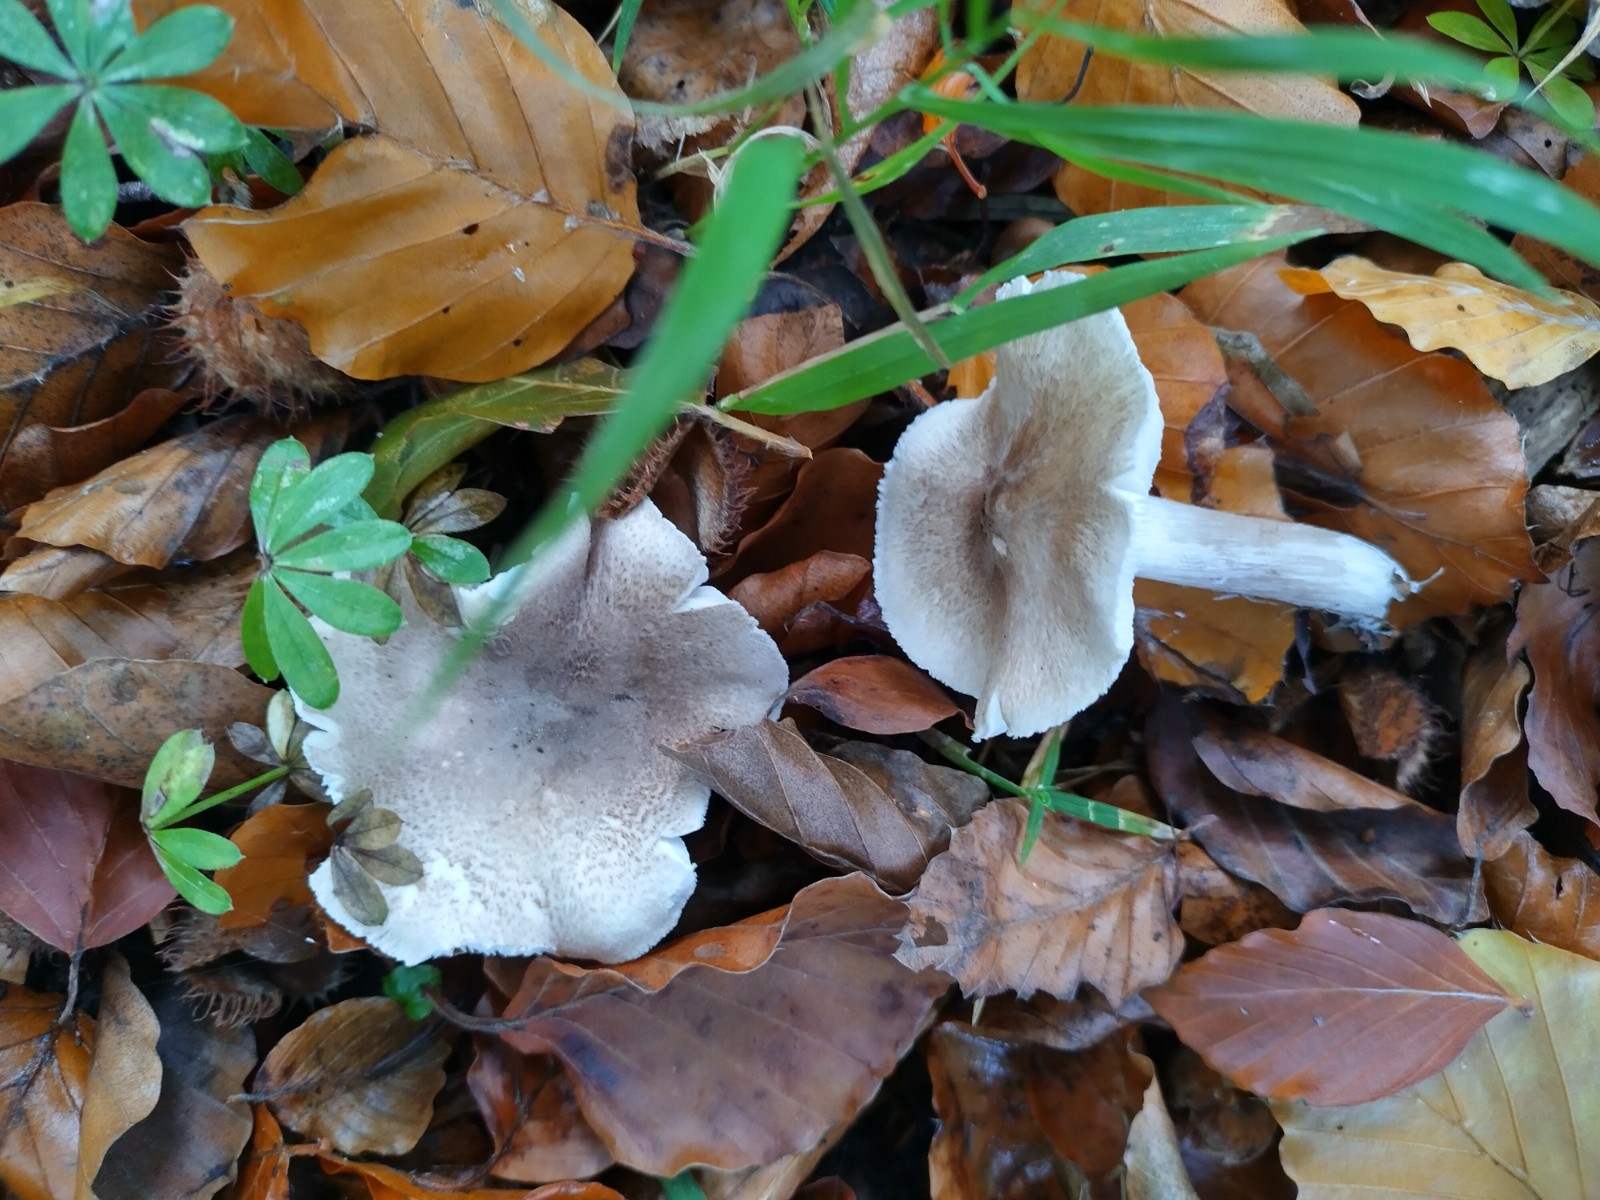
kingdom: Fungi
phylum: Basidiomycota
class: Agaricomycetes
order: Agaricales
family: Tricholomataceae
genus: Tricholoma
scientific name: Tricholoma
